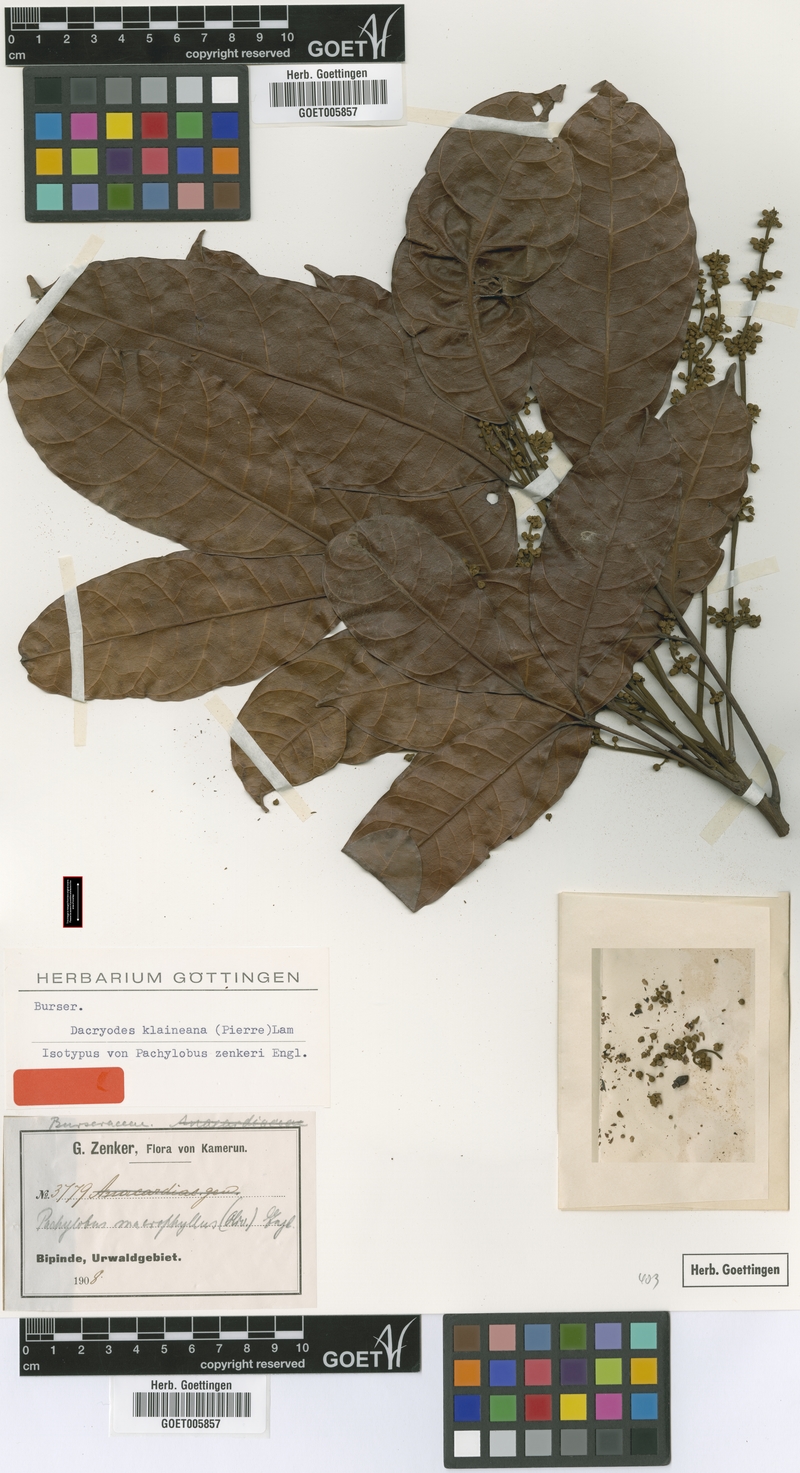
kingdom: Plantae
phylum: Tracheophyta
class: Magnoliopsida
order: Sapindales
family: Burseraceae
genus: Pachylobus
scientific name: Pachylobus klaineana
